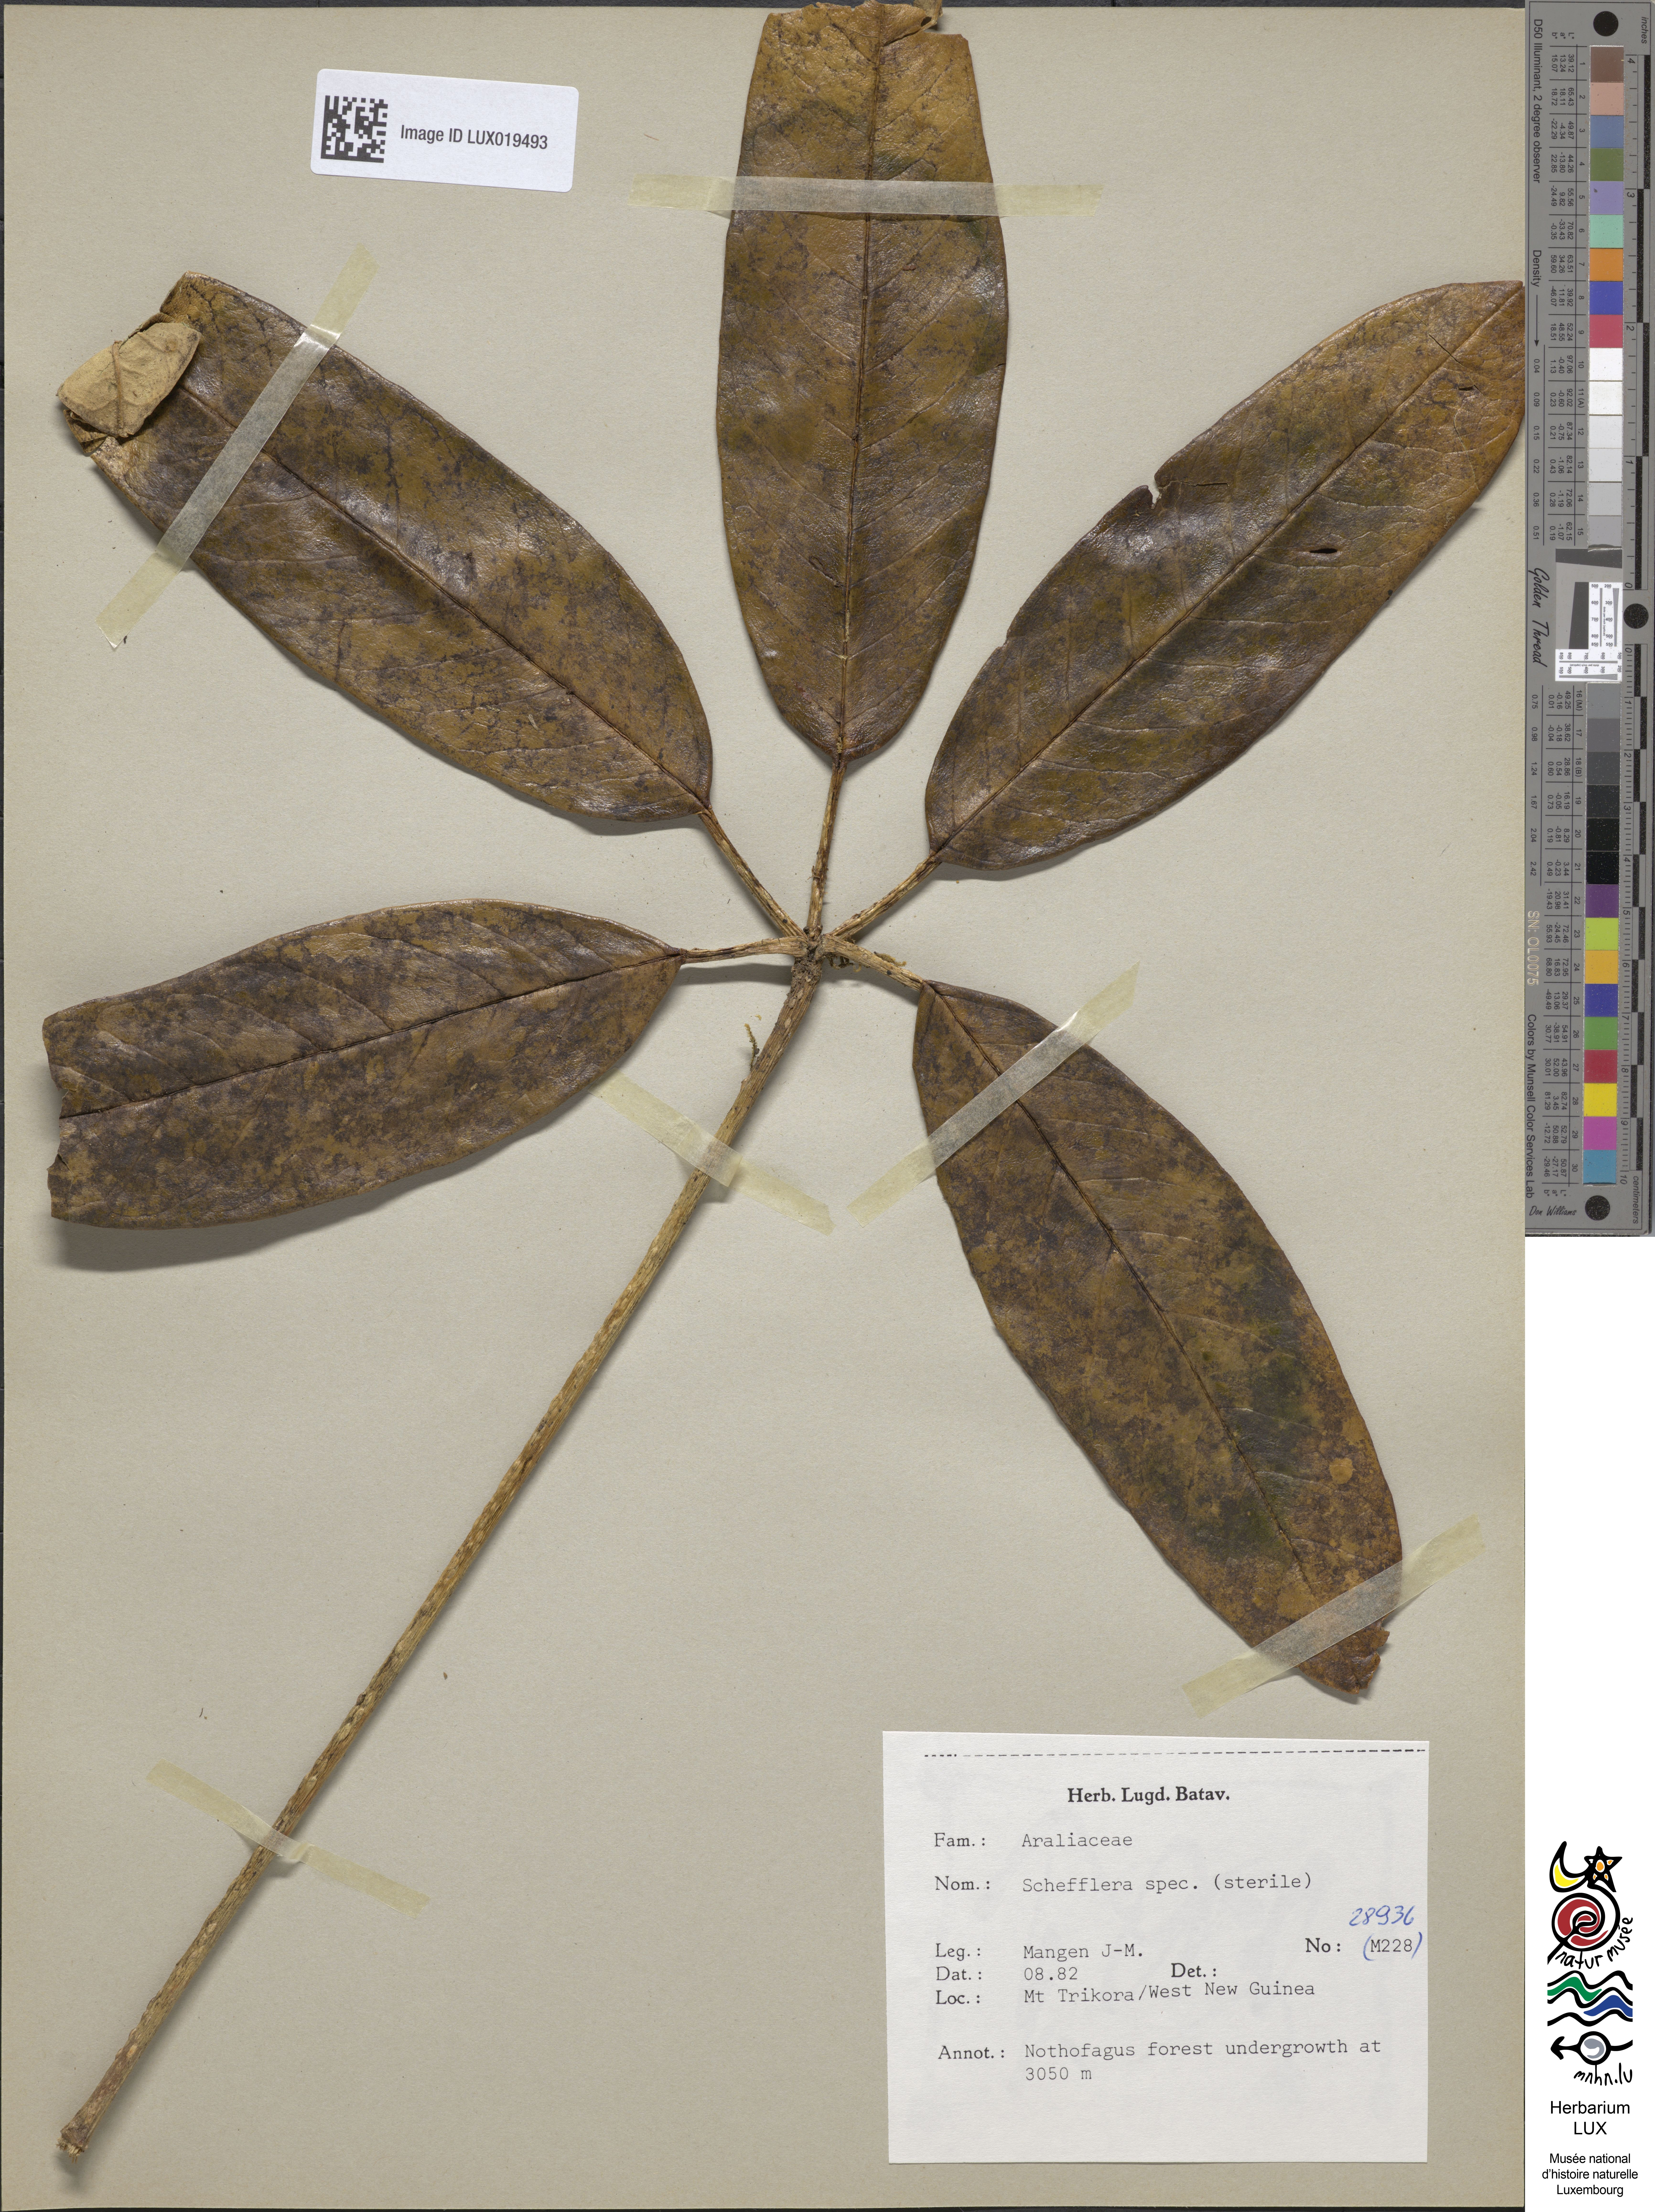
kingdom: Plantae
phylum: Tracheophyta
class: Magnoliopsida
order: Apiales
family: Araliaceae
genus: Schefflera
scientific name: Schefflera
